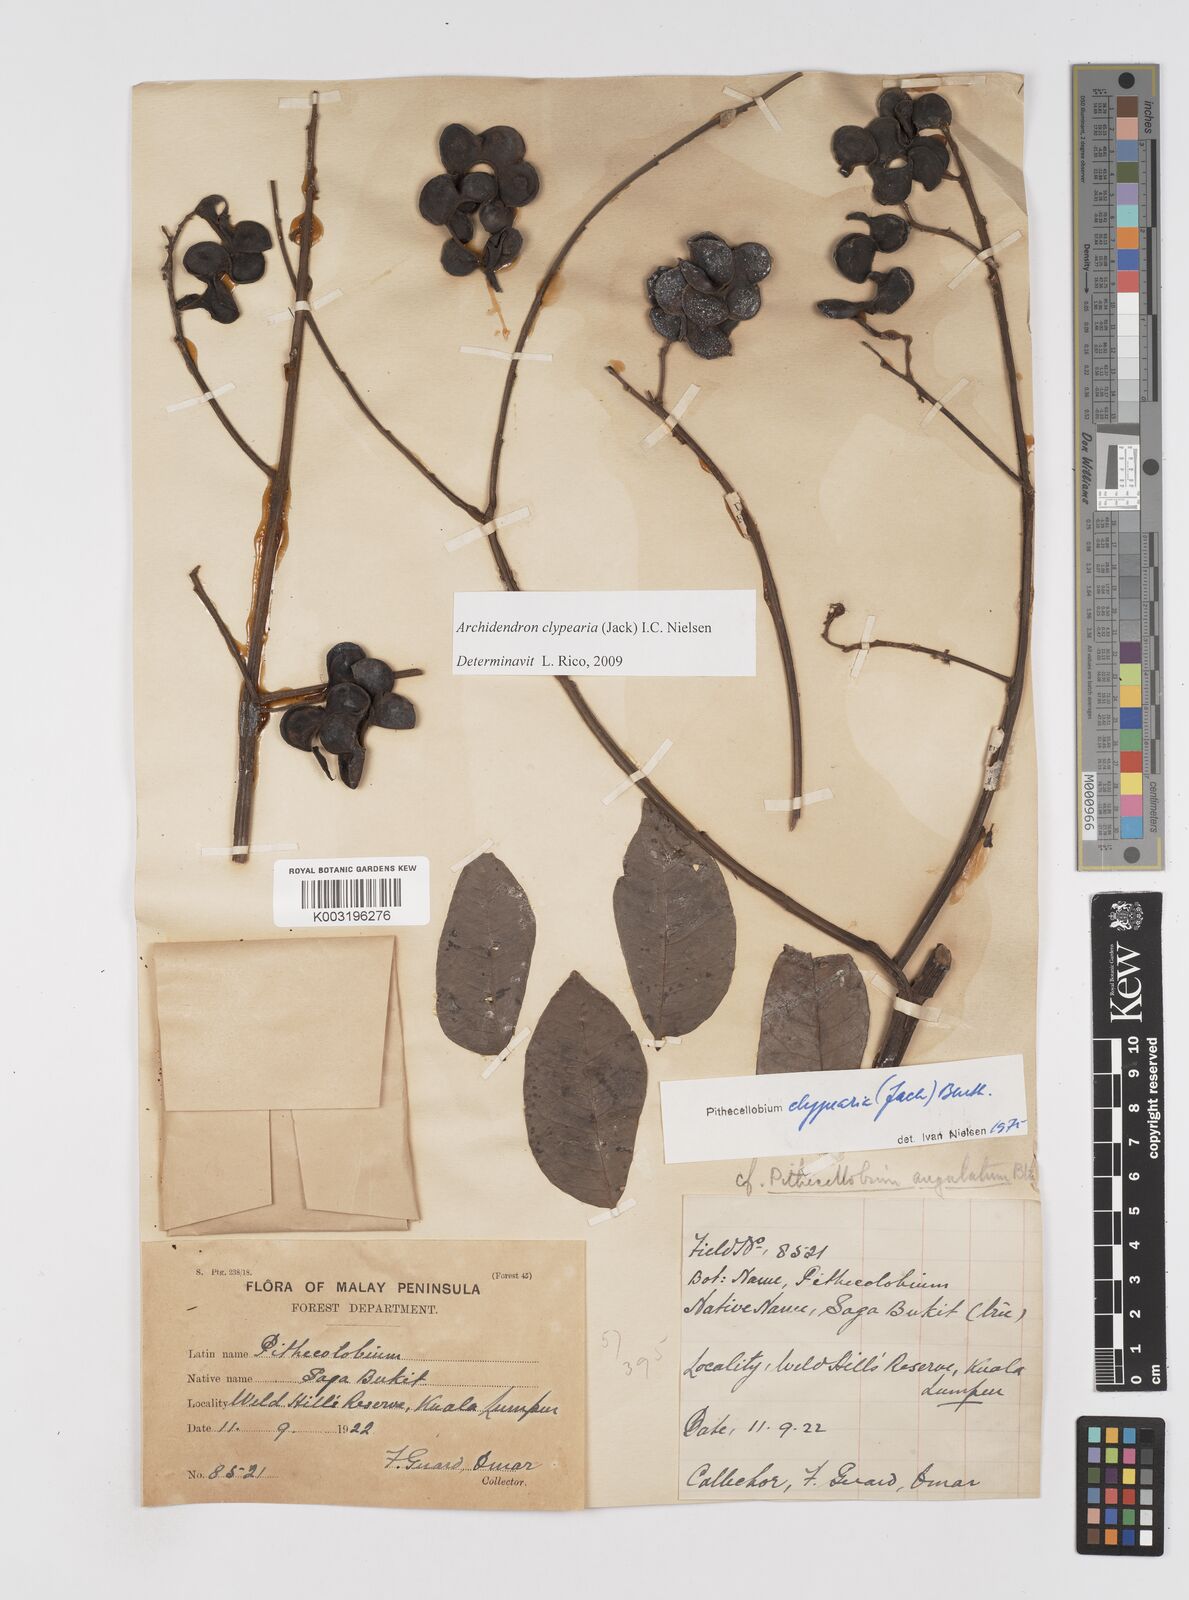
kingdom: Plantae
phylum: Tracheophyta
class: Magnoliopsida
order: Fabales
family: Fabaceae
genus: Archidendron
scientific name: Archidendron clypearia
